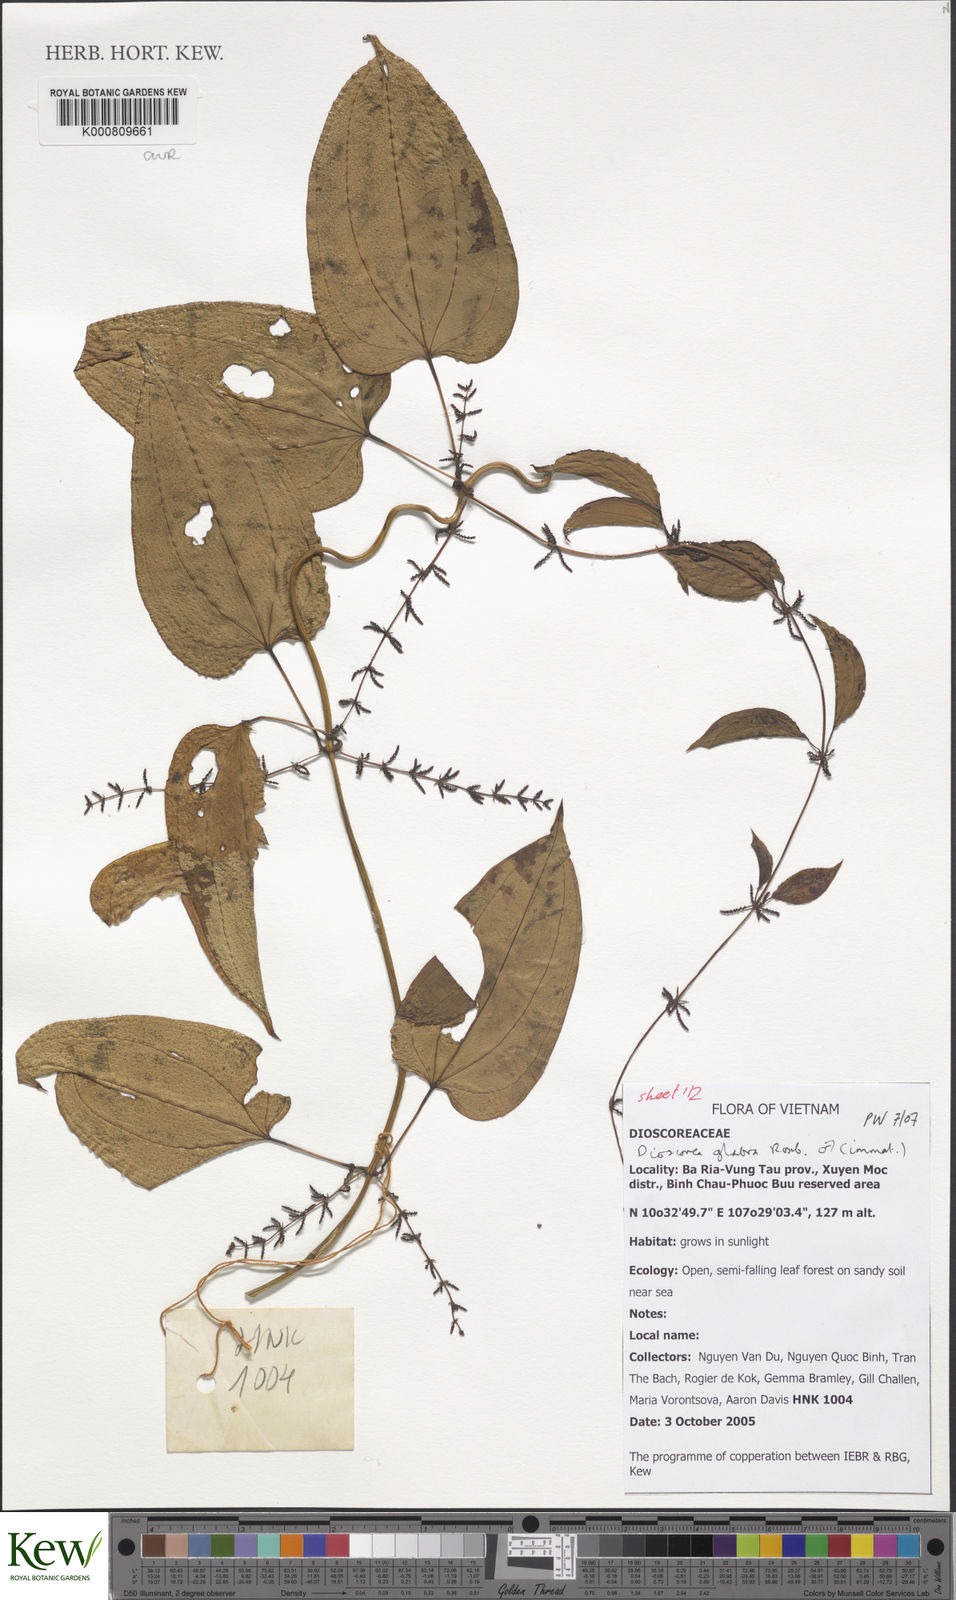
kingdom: Plantae
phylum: Tracheophyta
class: Liliopsida
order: Dioscoreales
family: Dioscoreaceae
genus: Dioscorea
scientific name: Dioscorea glabra
